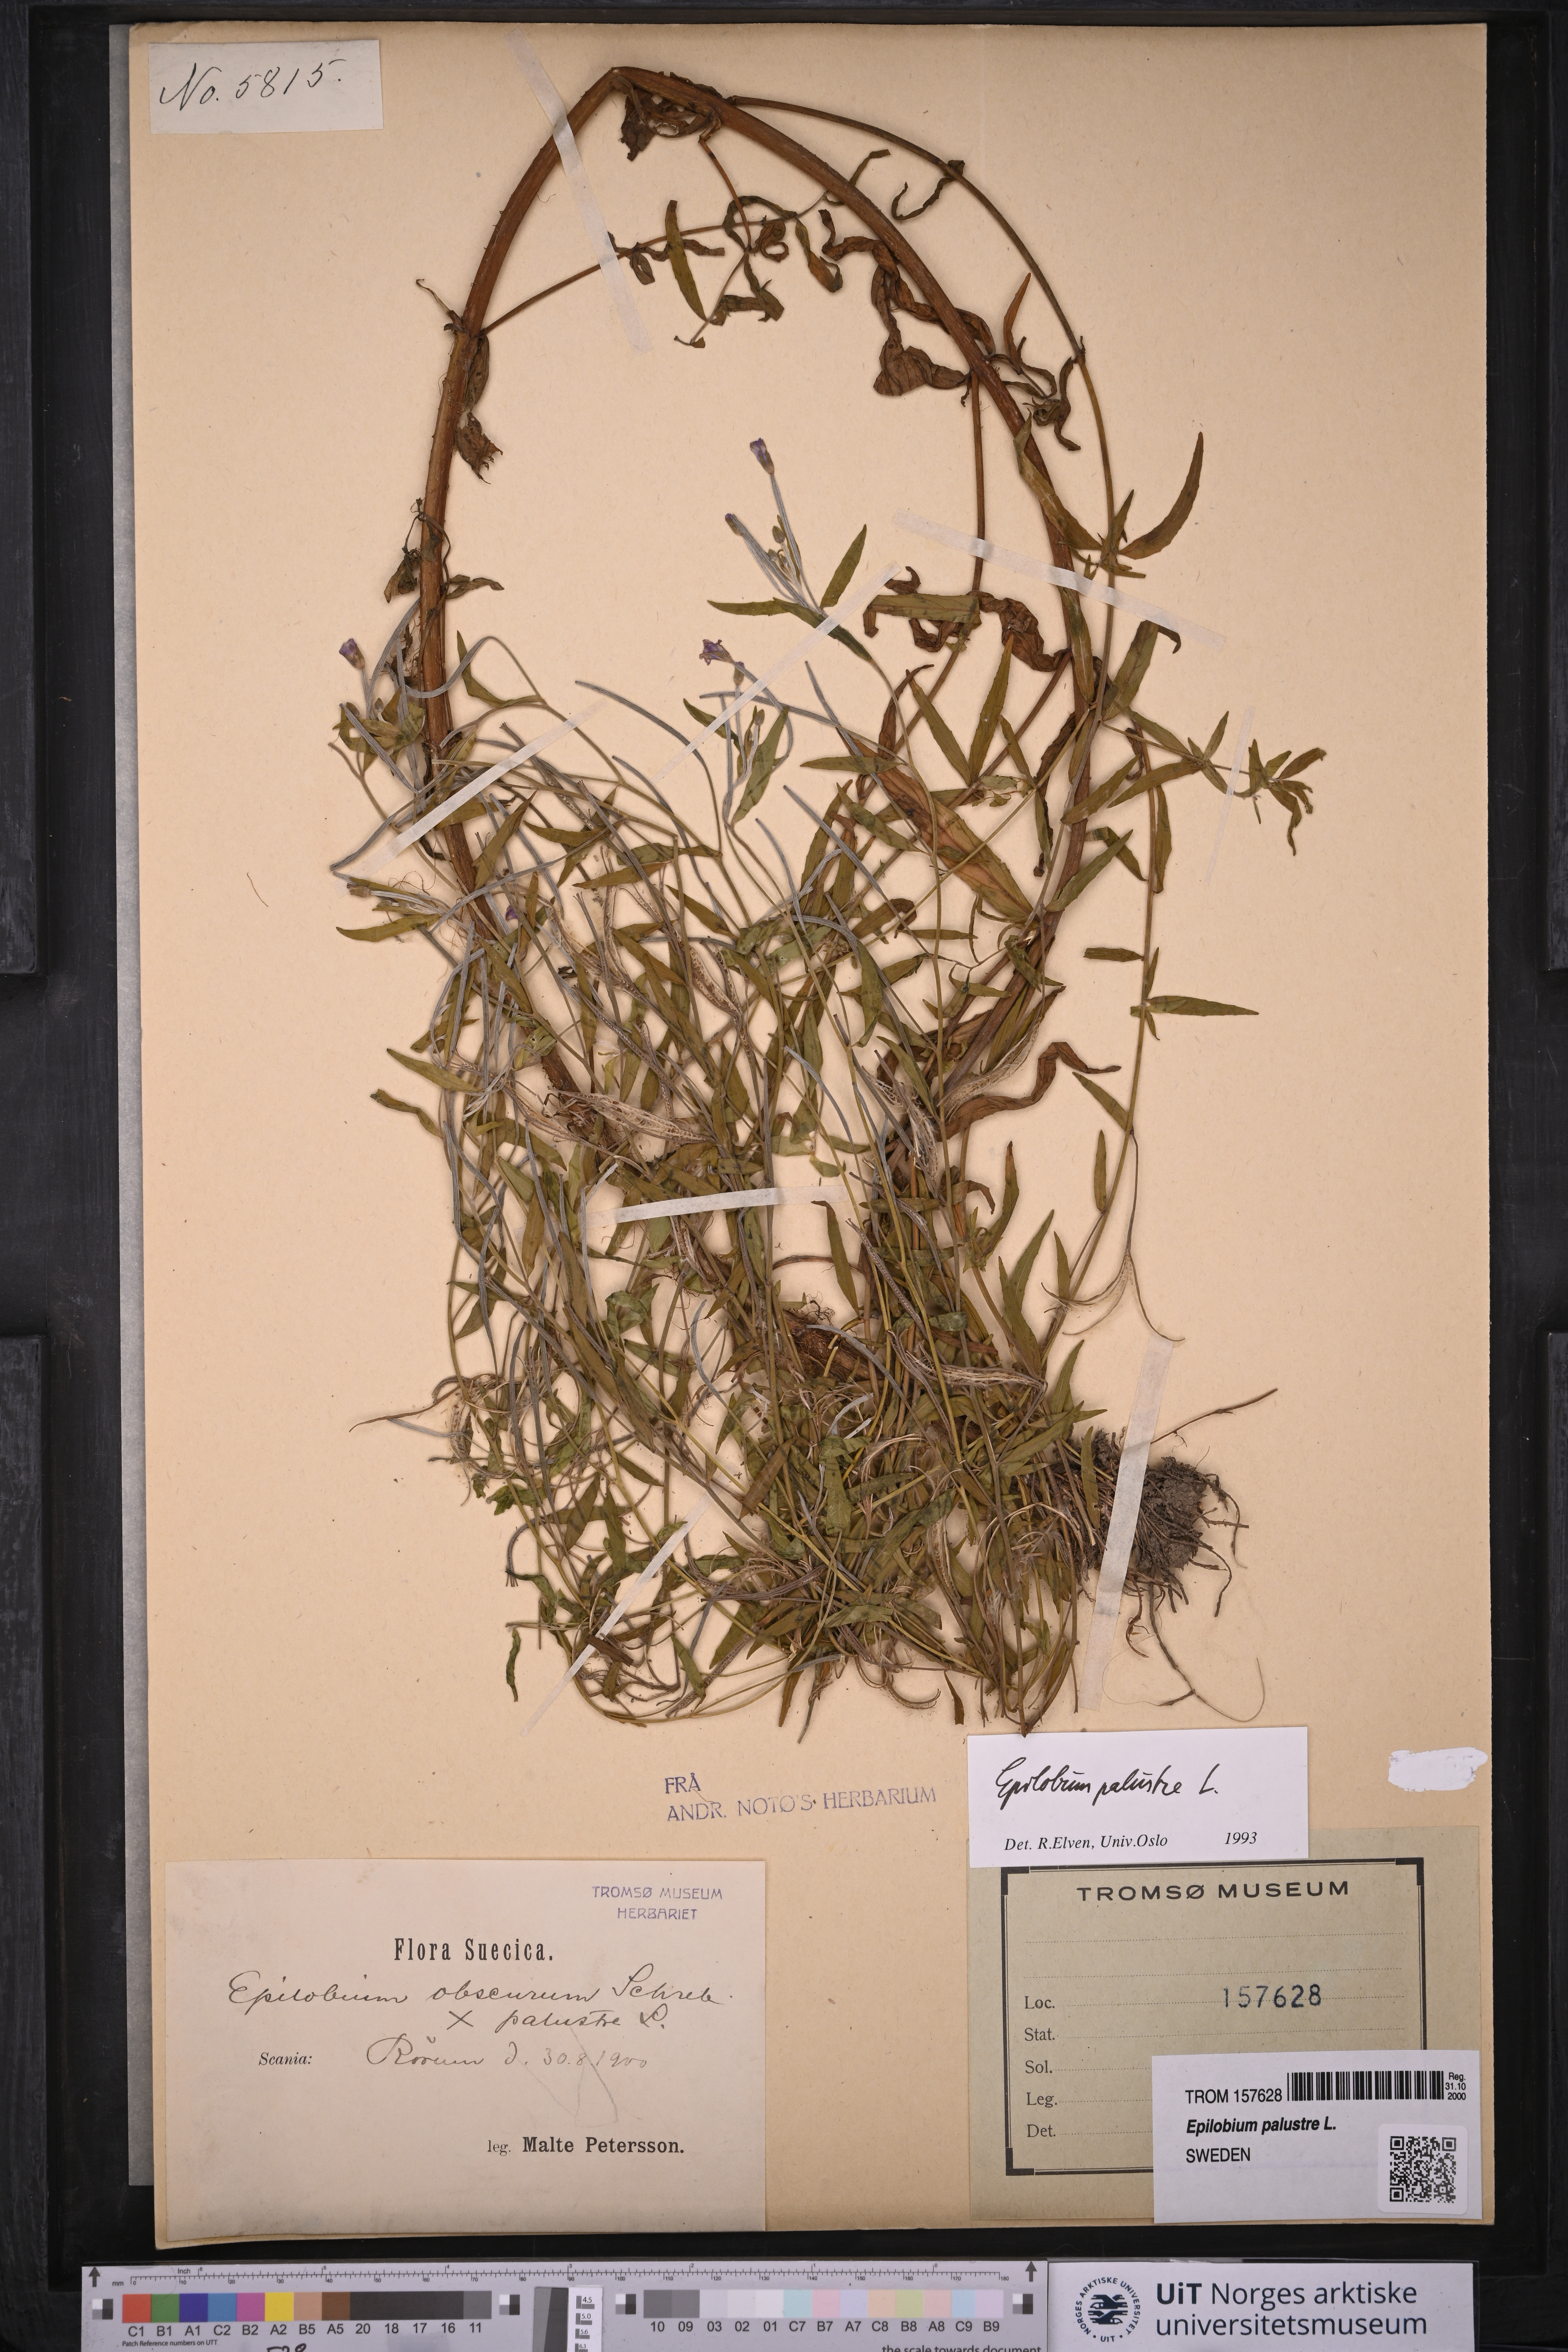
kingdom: Plantae
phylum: Tracheophyta
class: Magnoliopsida
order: Myrtales
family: Onagraceae
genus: Epilobium
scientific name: Epilobium palustre
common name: Marsh willowherb
